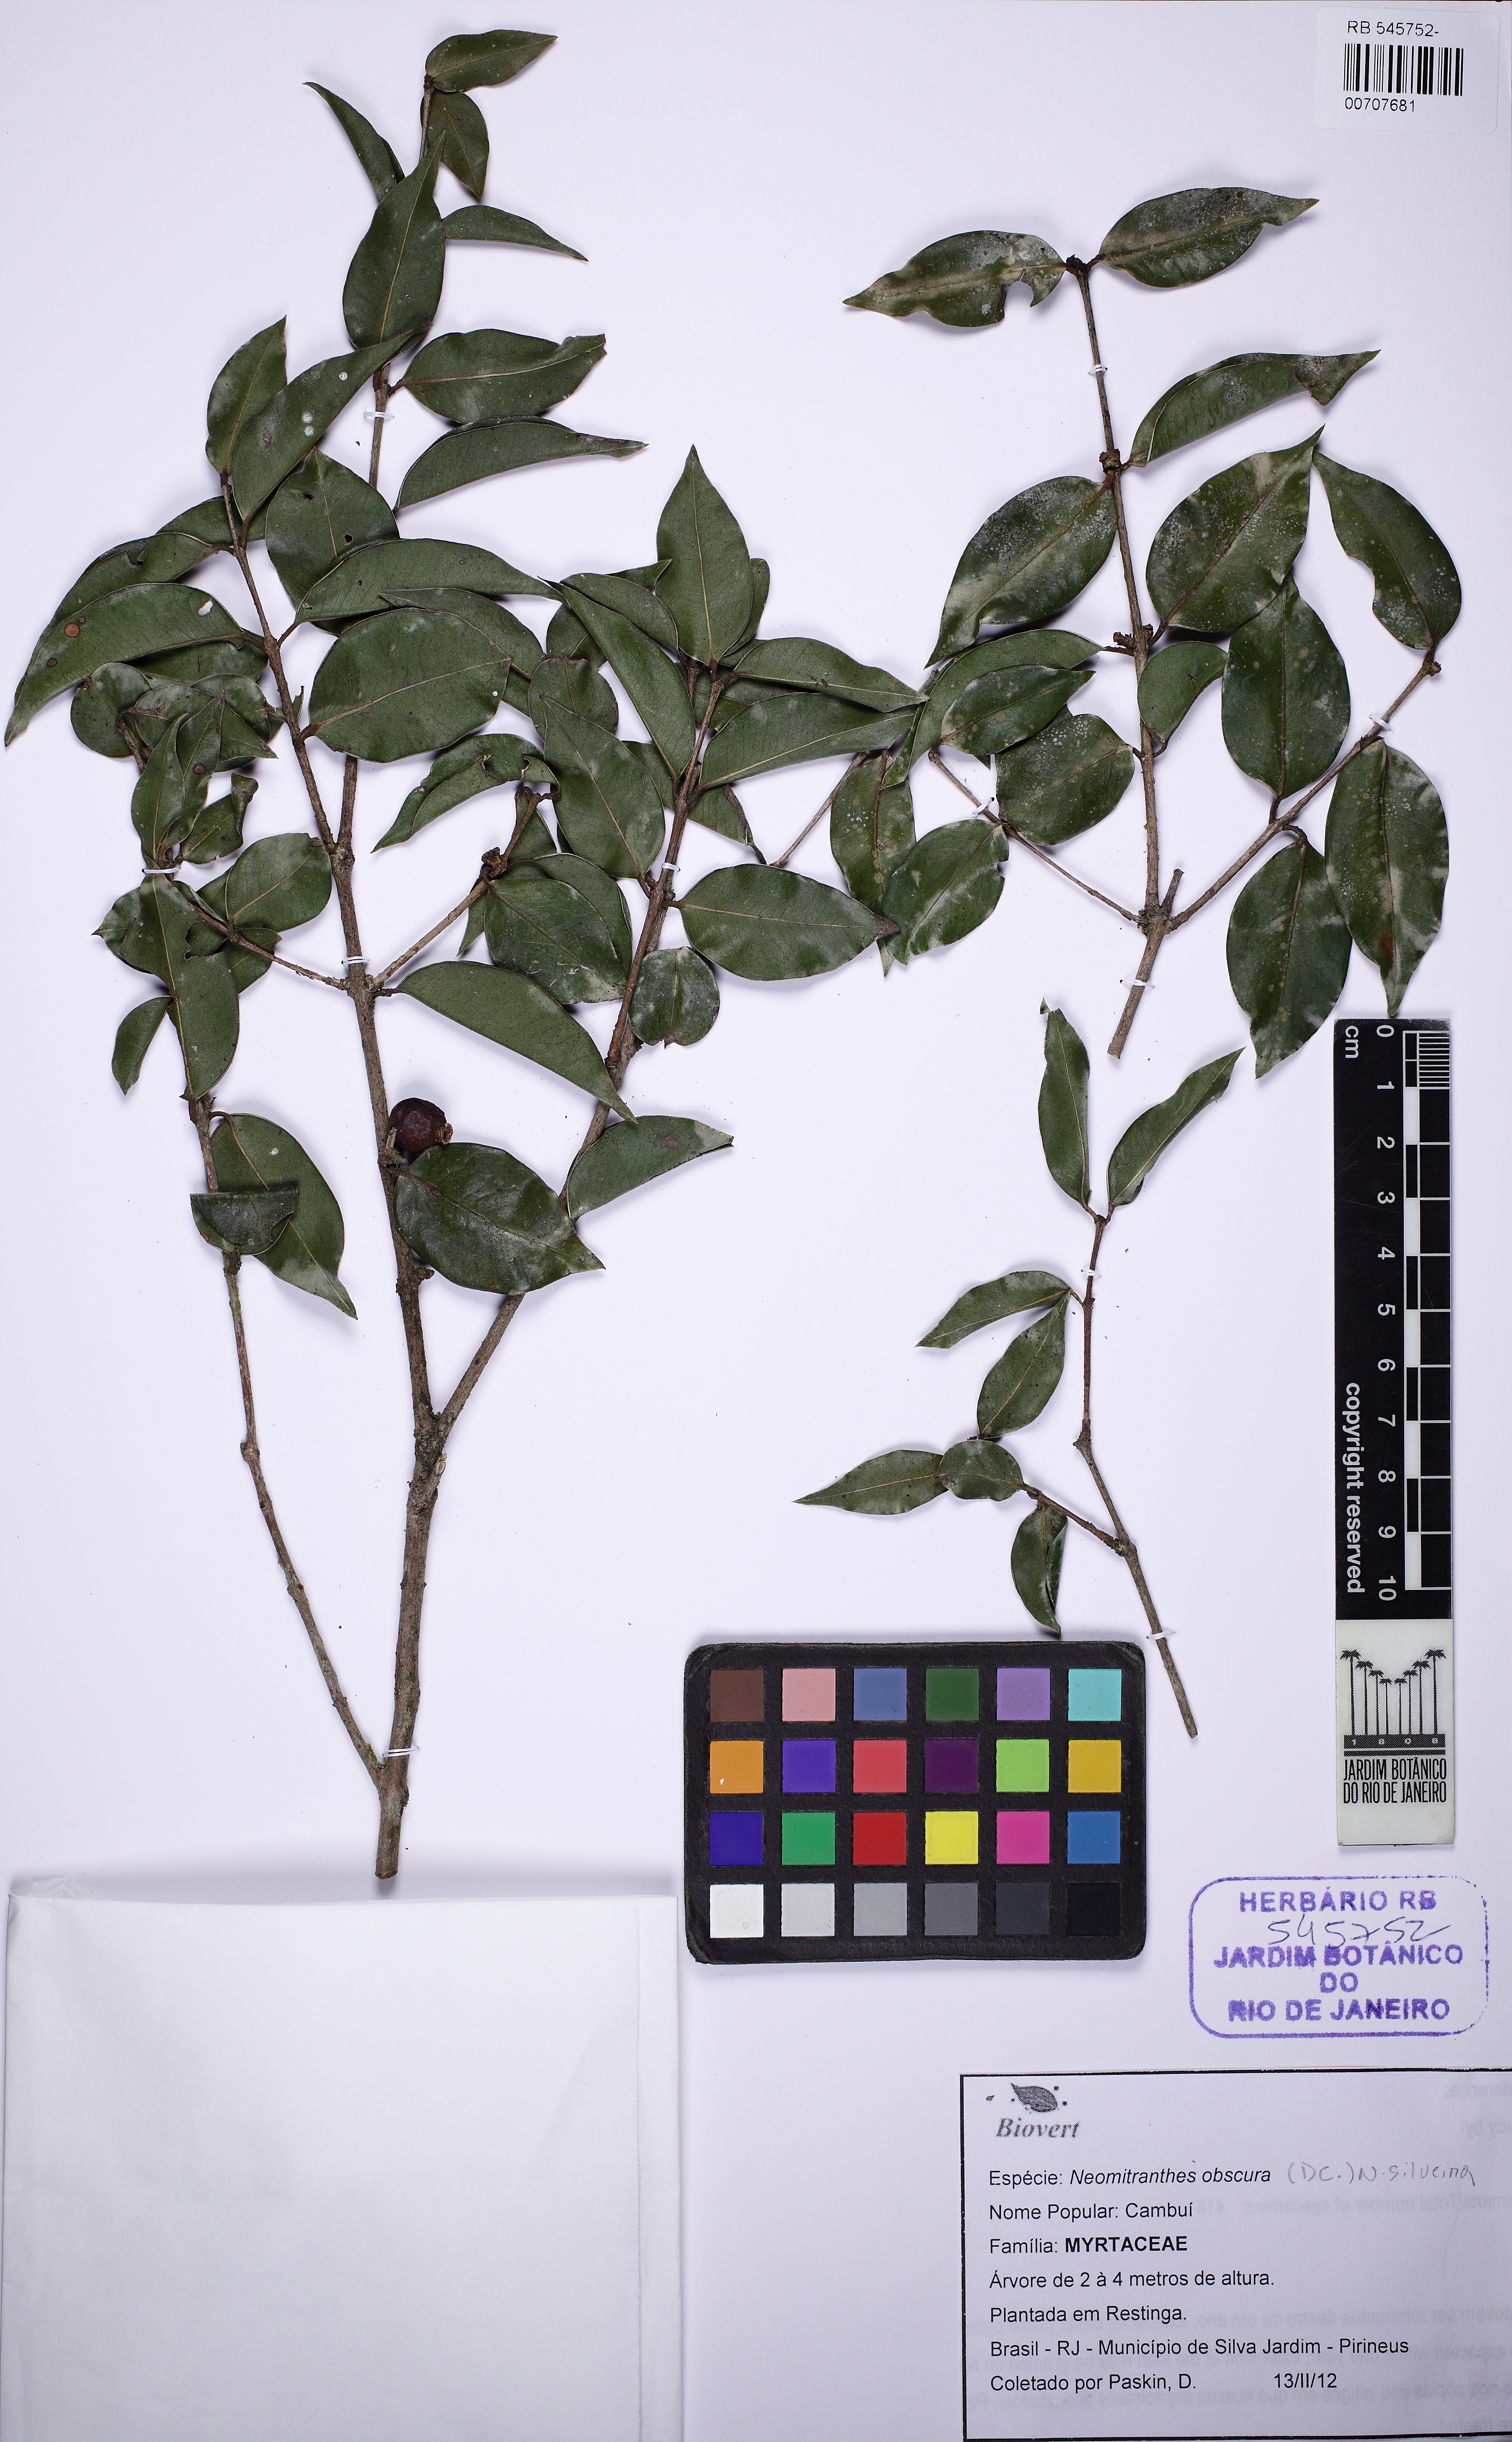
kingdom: Plantae
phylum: Tracheophyta
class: Magnoliopsida
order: Myrtales
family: Myrtaceae
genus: Neomitranthes
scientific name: Neomitranthes obscura
